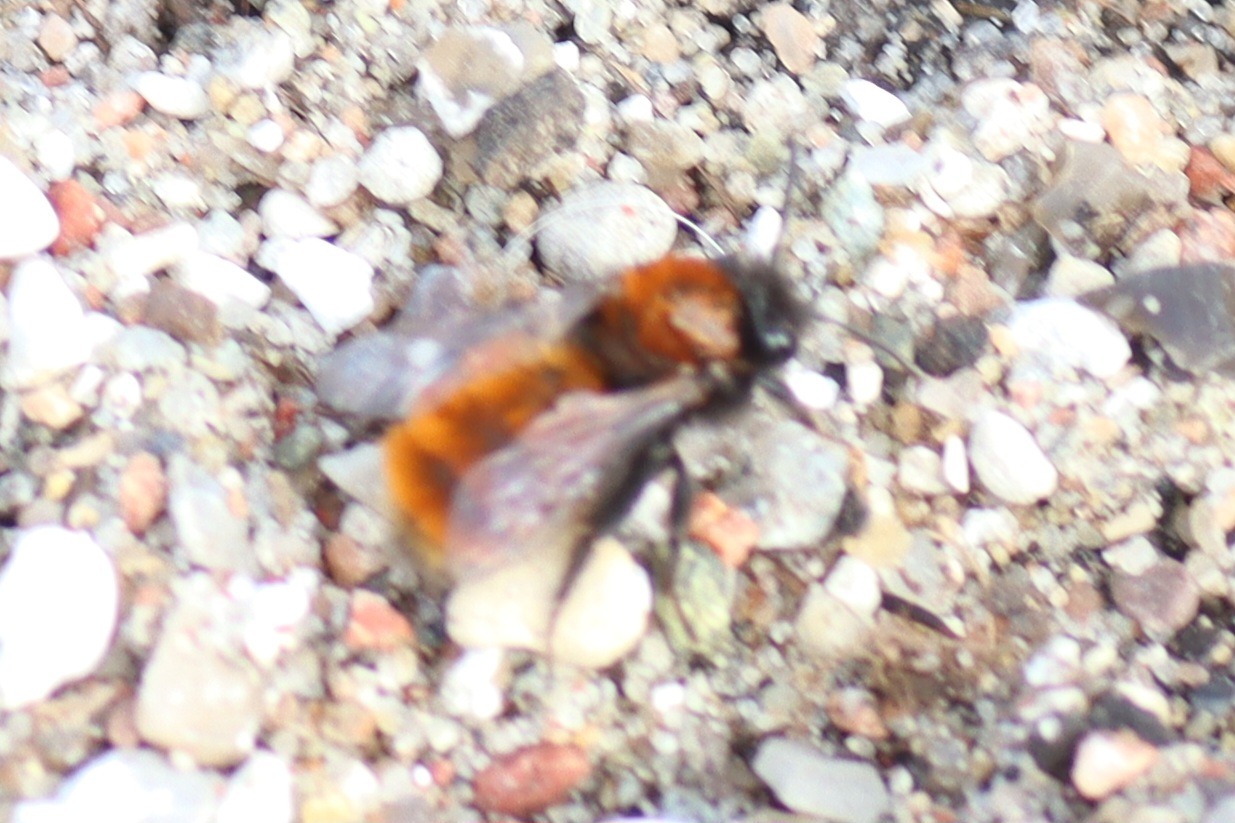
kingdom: Animalia
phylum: Arthropoda
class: Insecta
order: Hymenoptera
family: Andrenidae
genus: Andrena
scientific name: Andrena fulva
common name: Rødpelset jordbi
